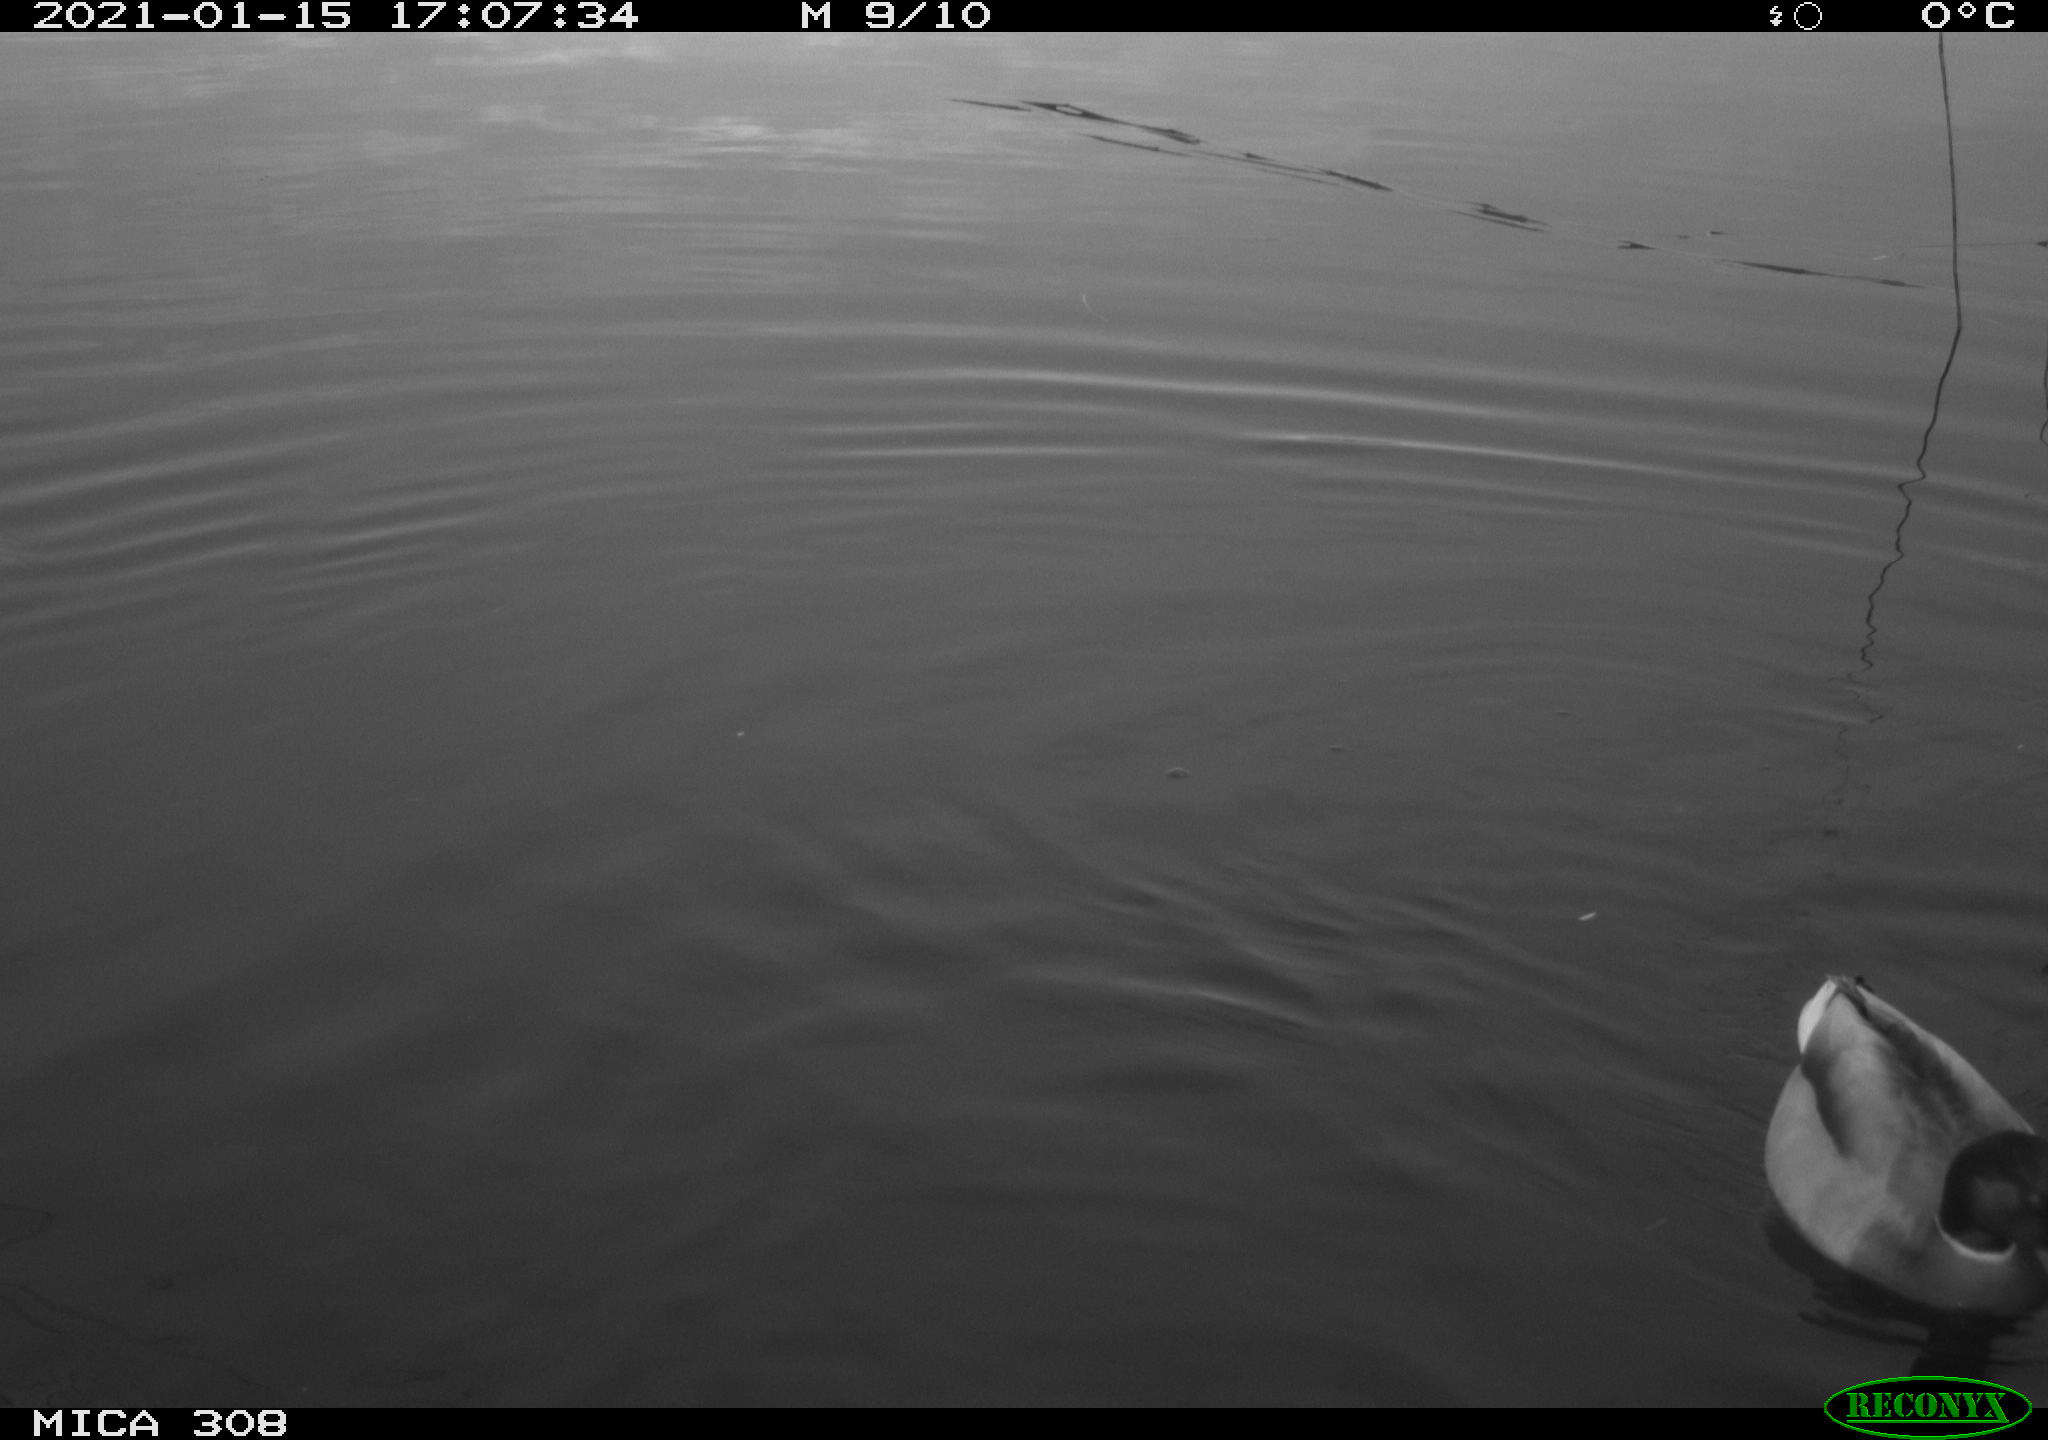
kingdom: Animalia
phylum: Chordata
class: Aves
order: Anseriformes
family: Anatidae
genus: Anas
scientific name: Anas platyrhynchos
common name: Mallard
